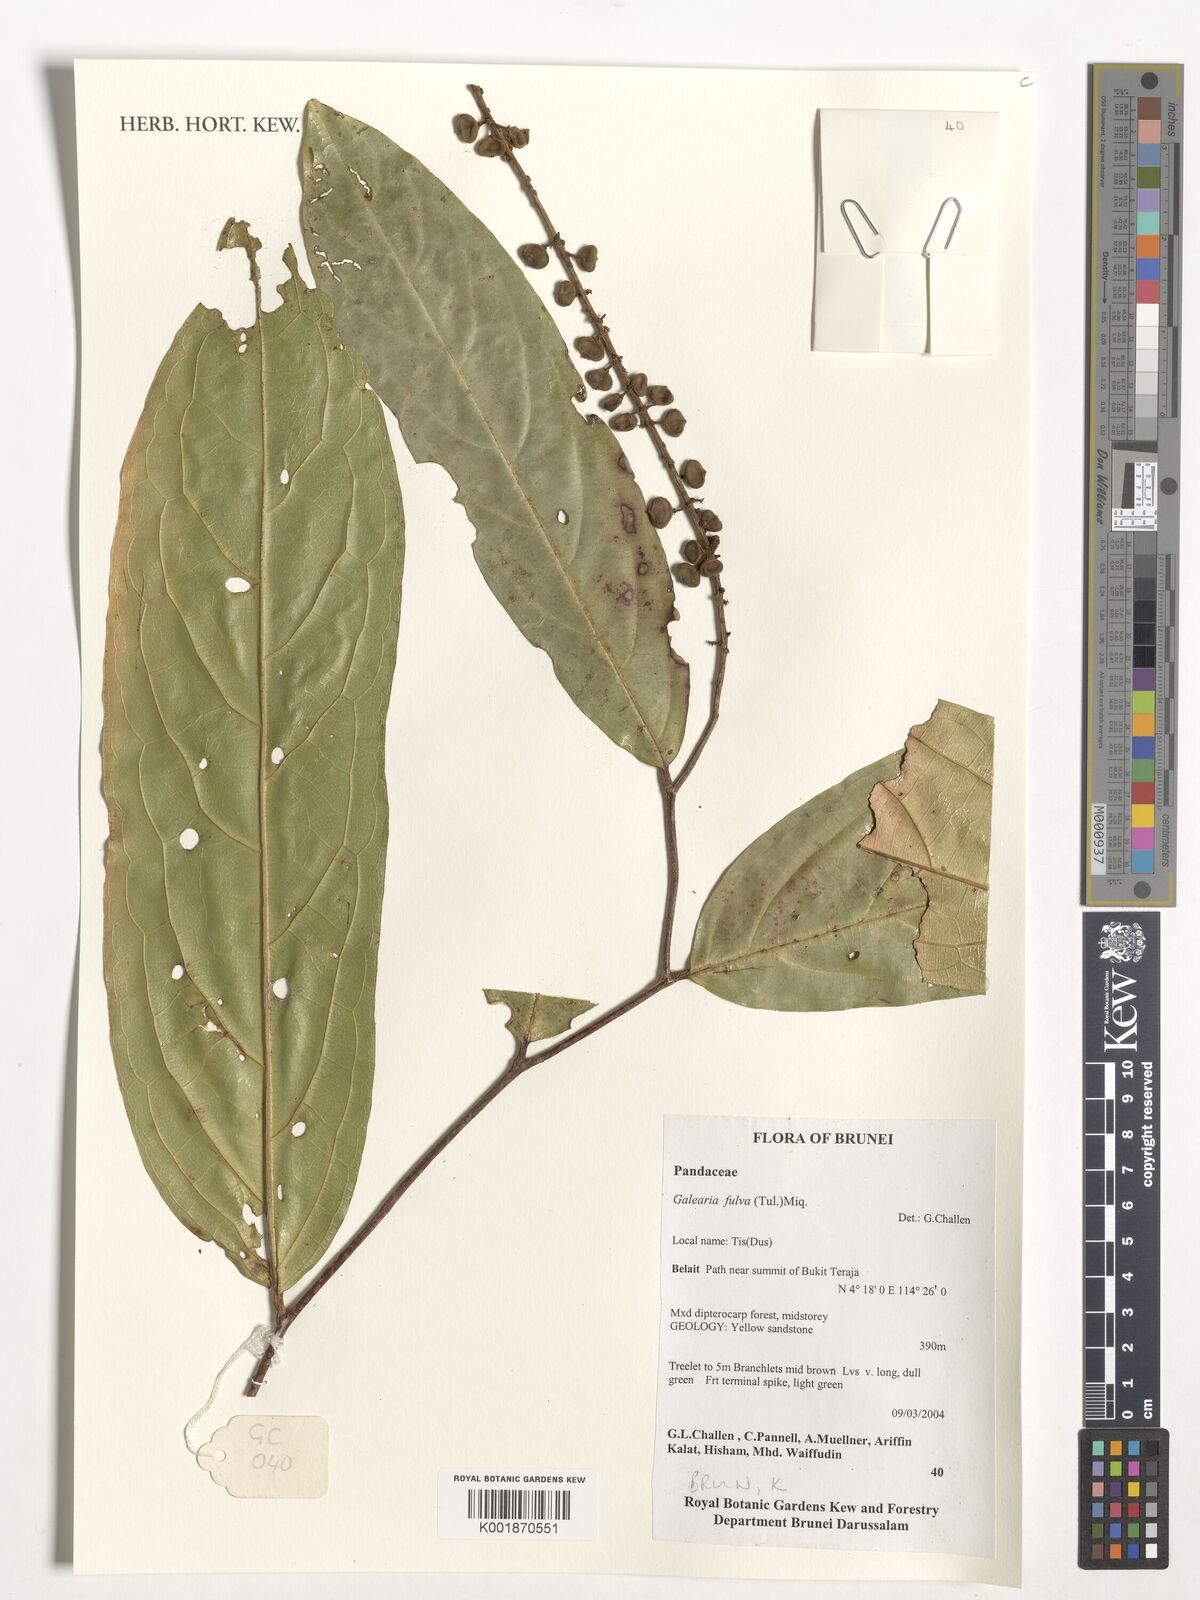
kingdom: Plantae
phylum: Tracheophyta
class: Magnoliopsida
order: Malpighiales
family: Pandaceae
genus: Galearia
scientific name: Galearia fulva
